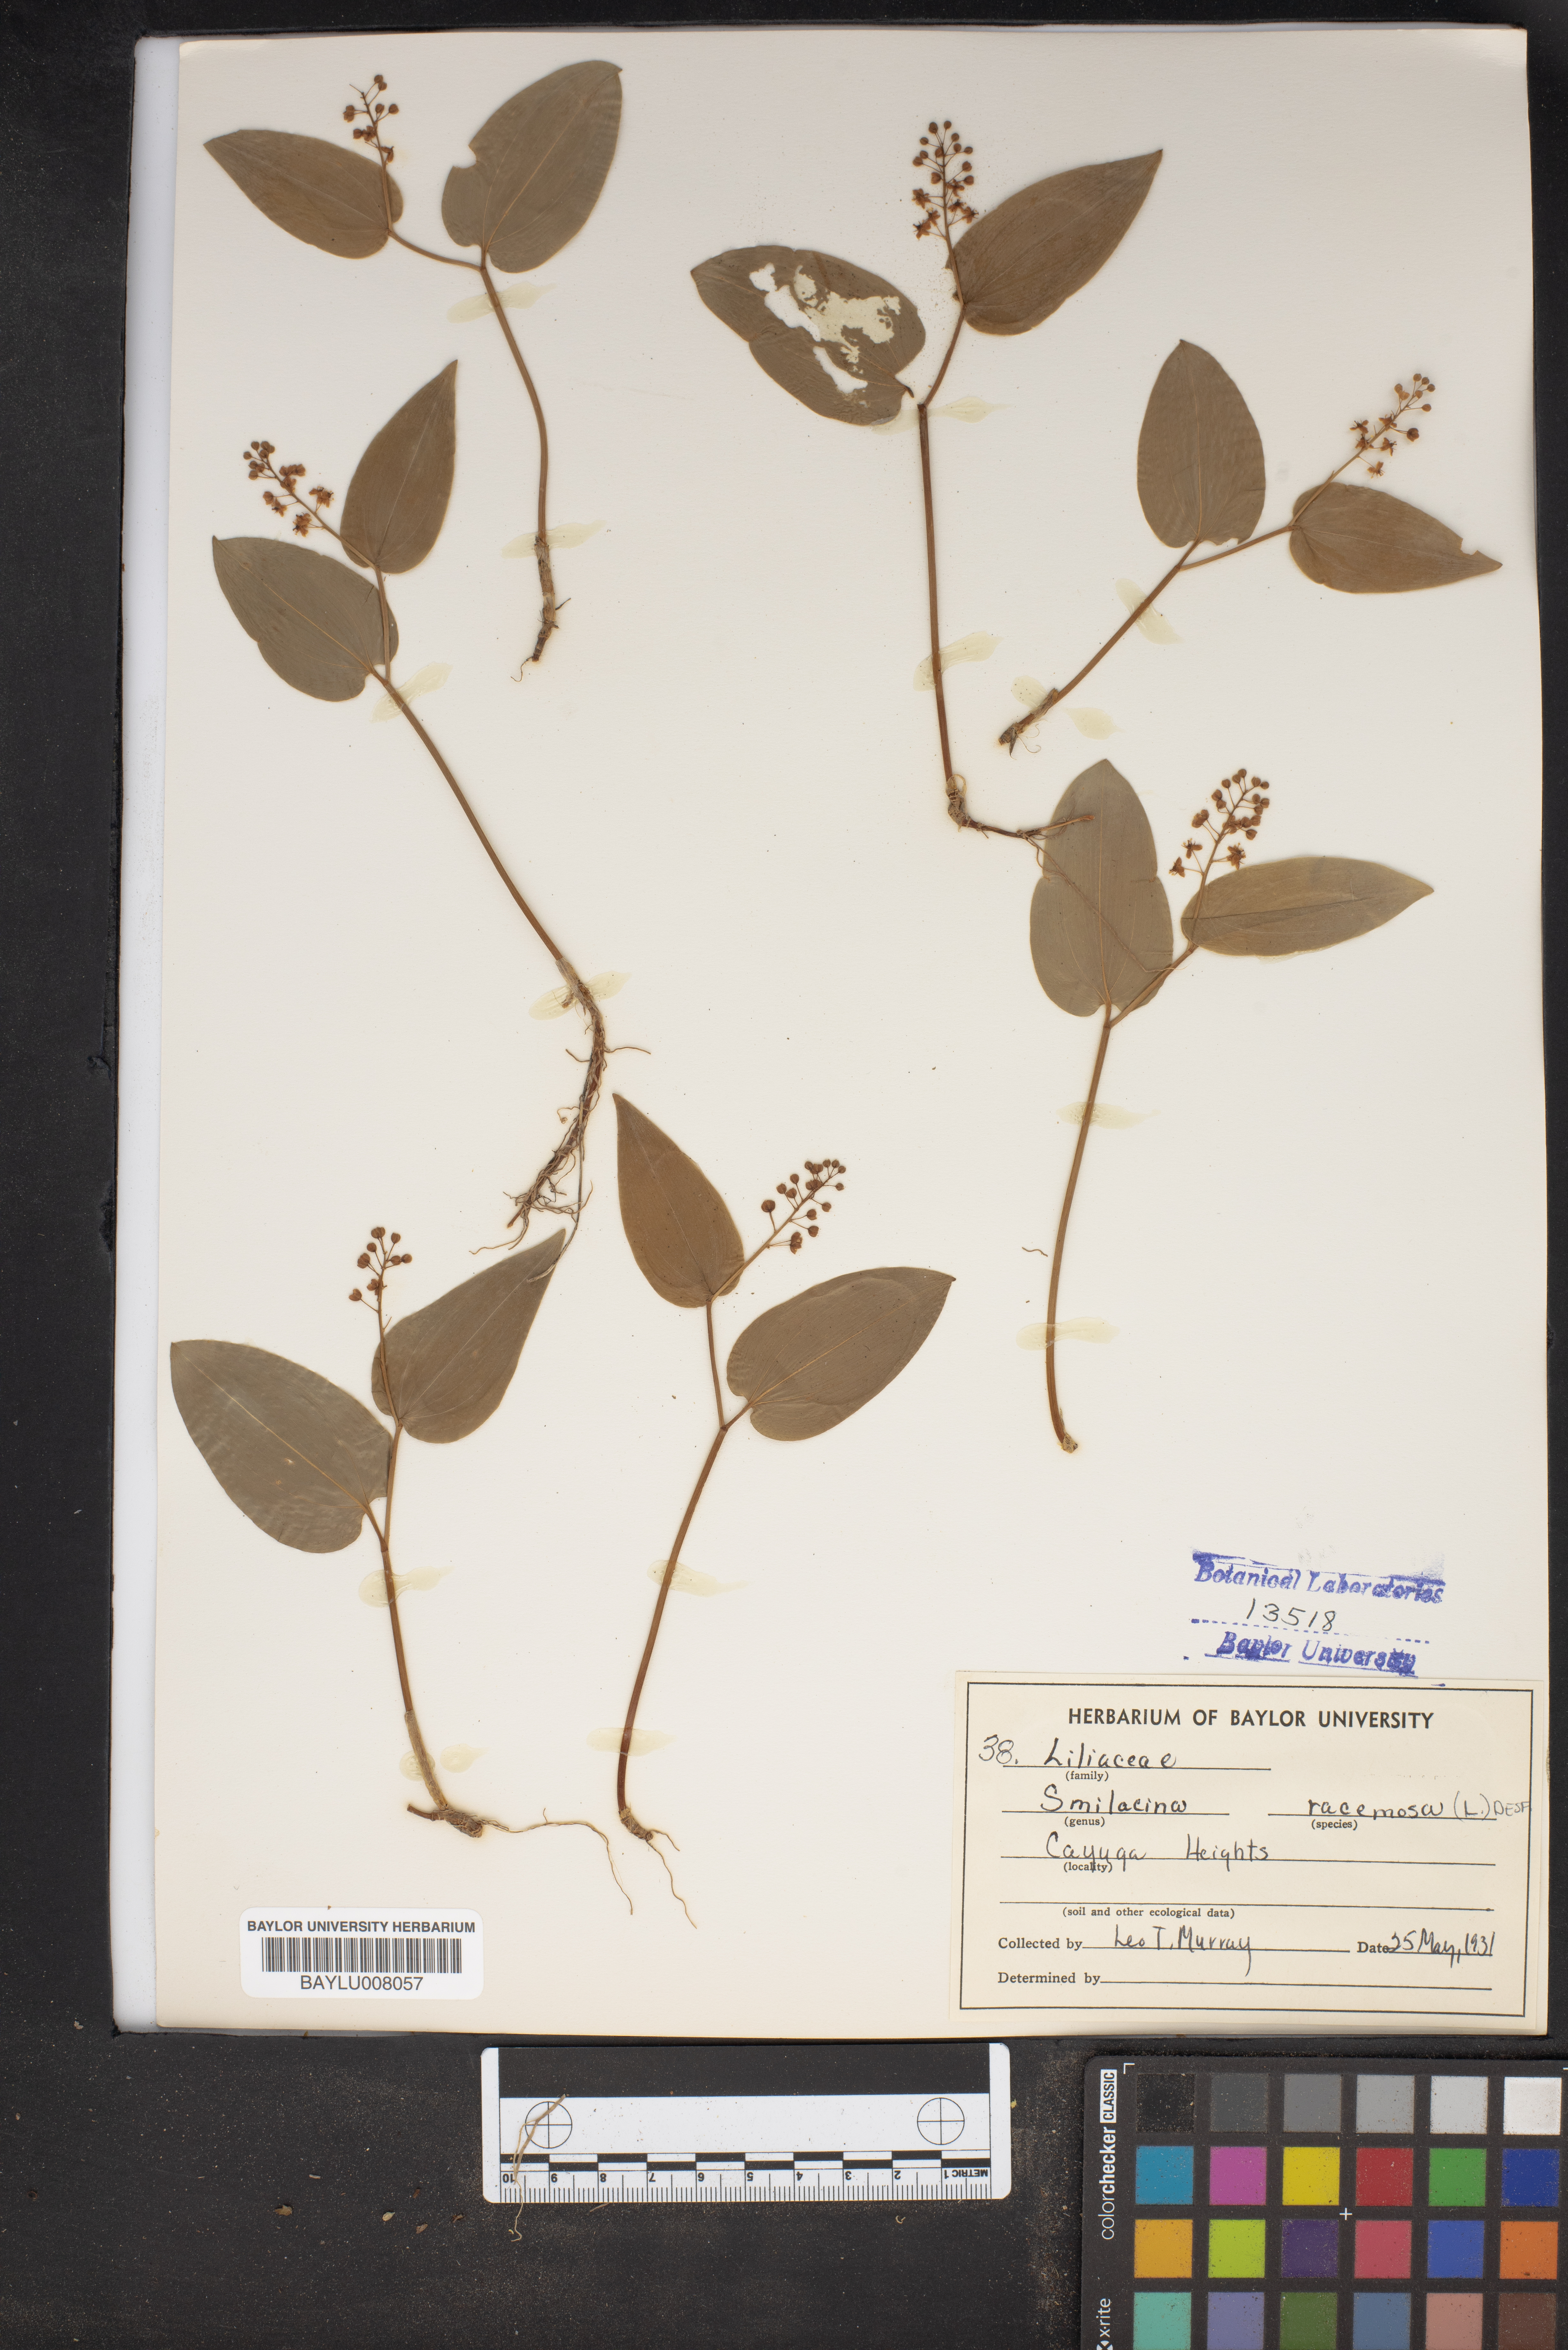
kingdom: Plantae
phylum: Tracheophyta
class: Liliopsida
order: Asparagales
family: Asparagaceae
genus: Maianthemum
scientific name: Maianthemum racemosum
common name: False spikenard
